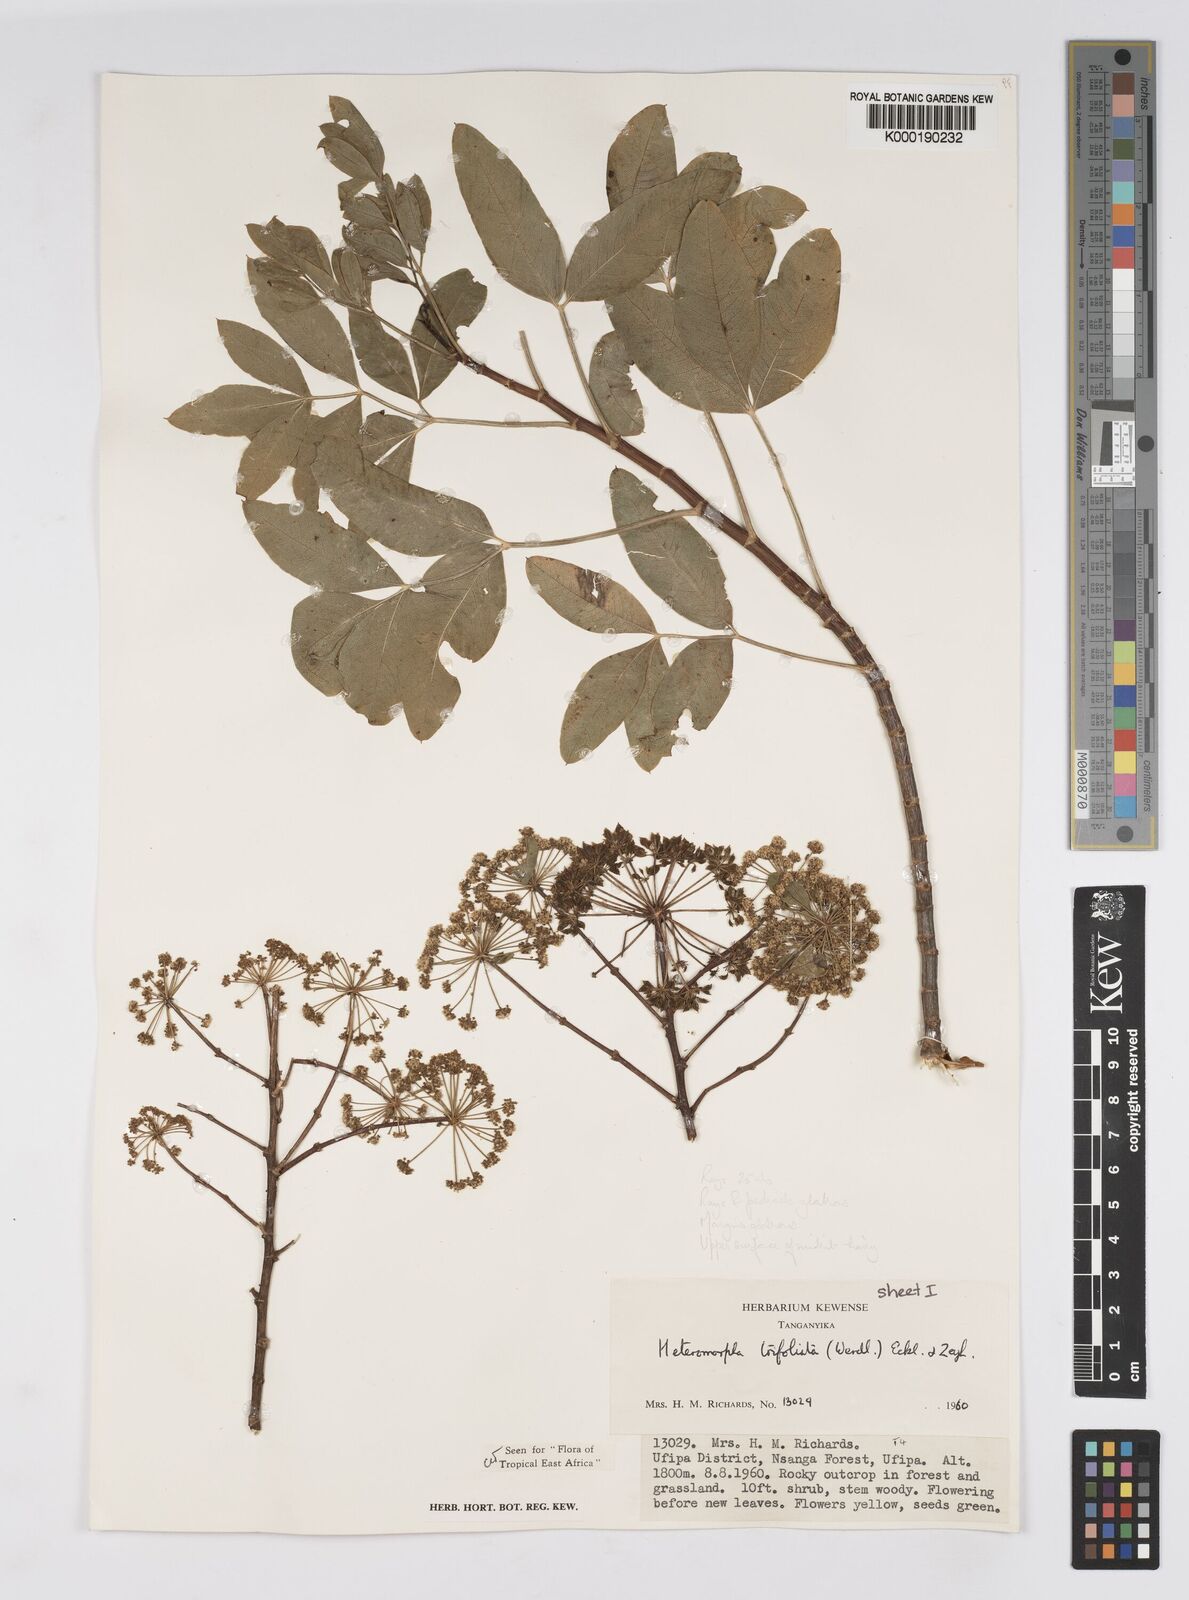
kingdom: Plantae
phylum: Tracheophyta
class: Magnoliopsida
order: Apiales
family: Apiaceae
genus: Heteromorpha
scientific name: Heteromorpha arborescens
